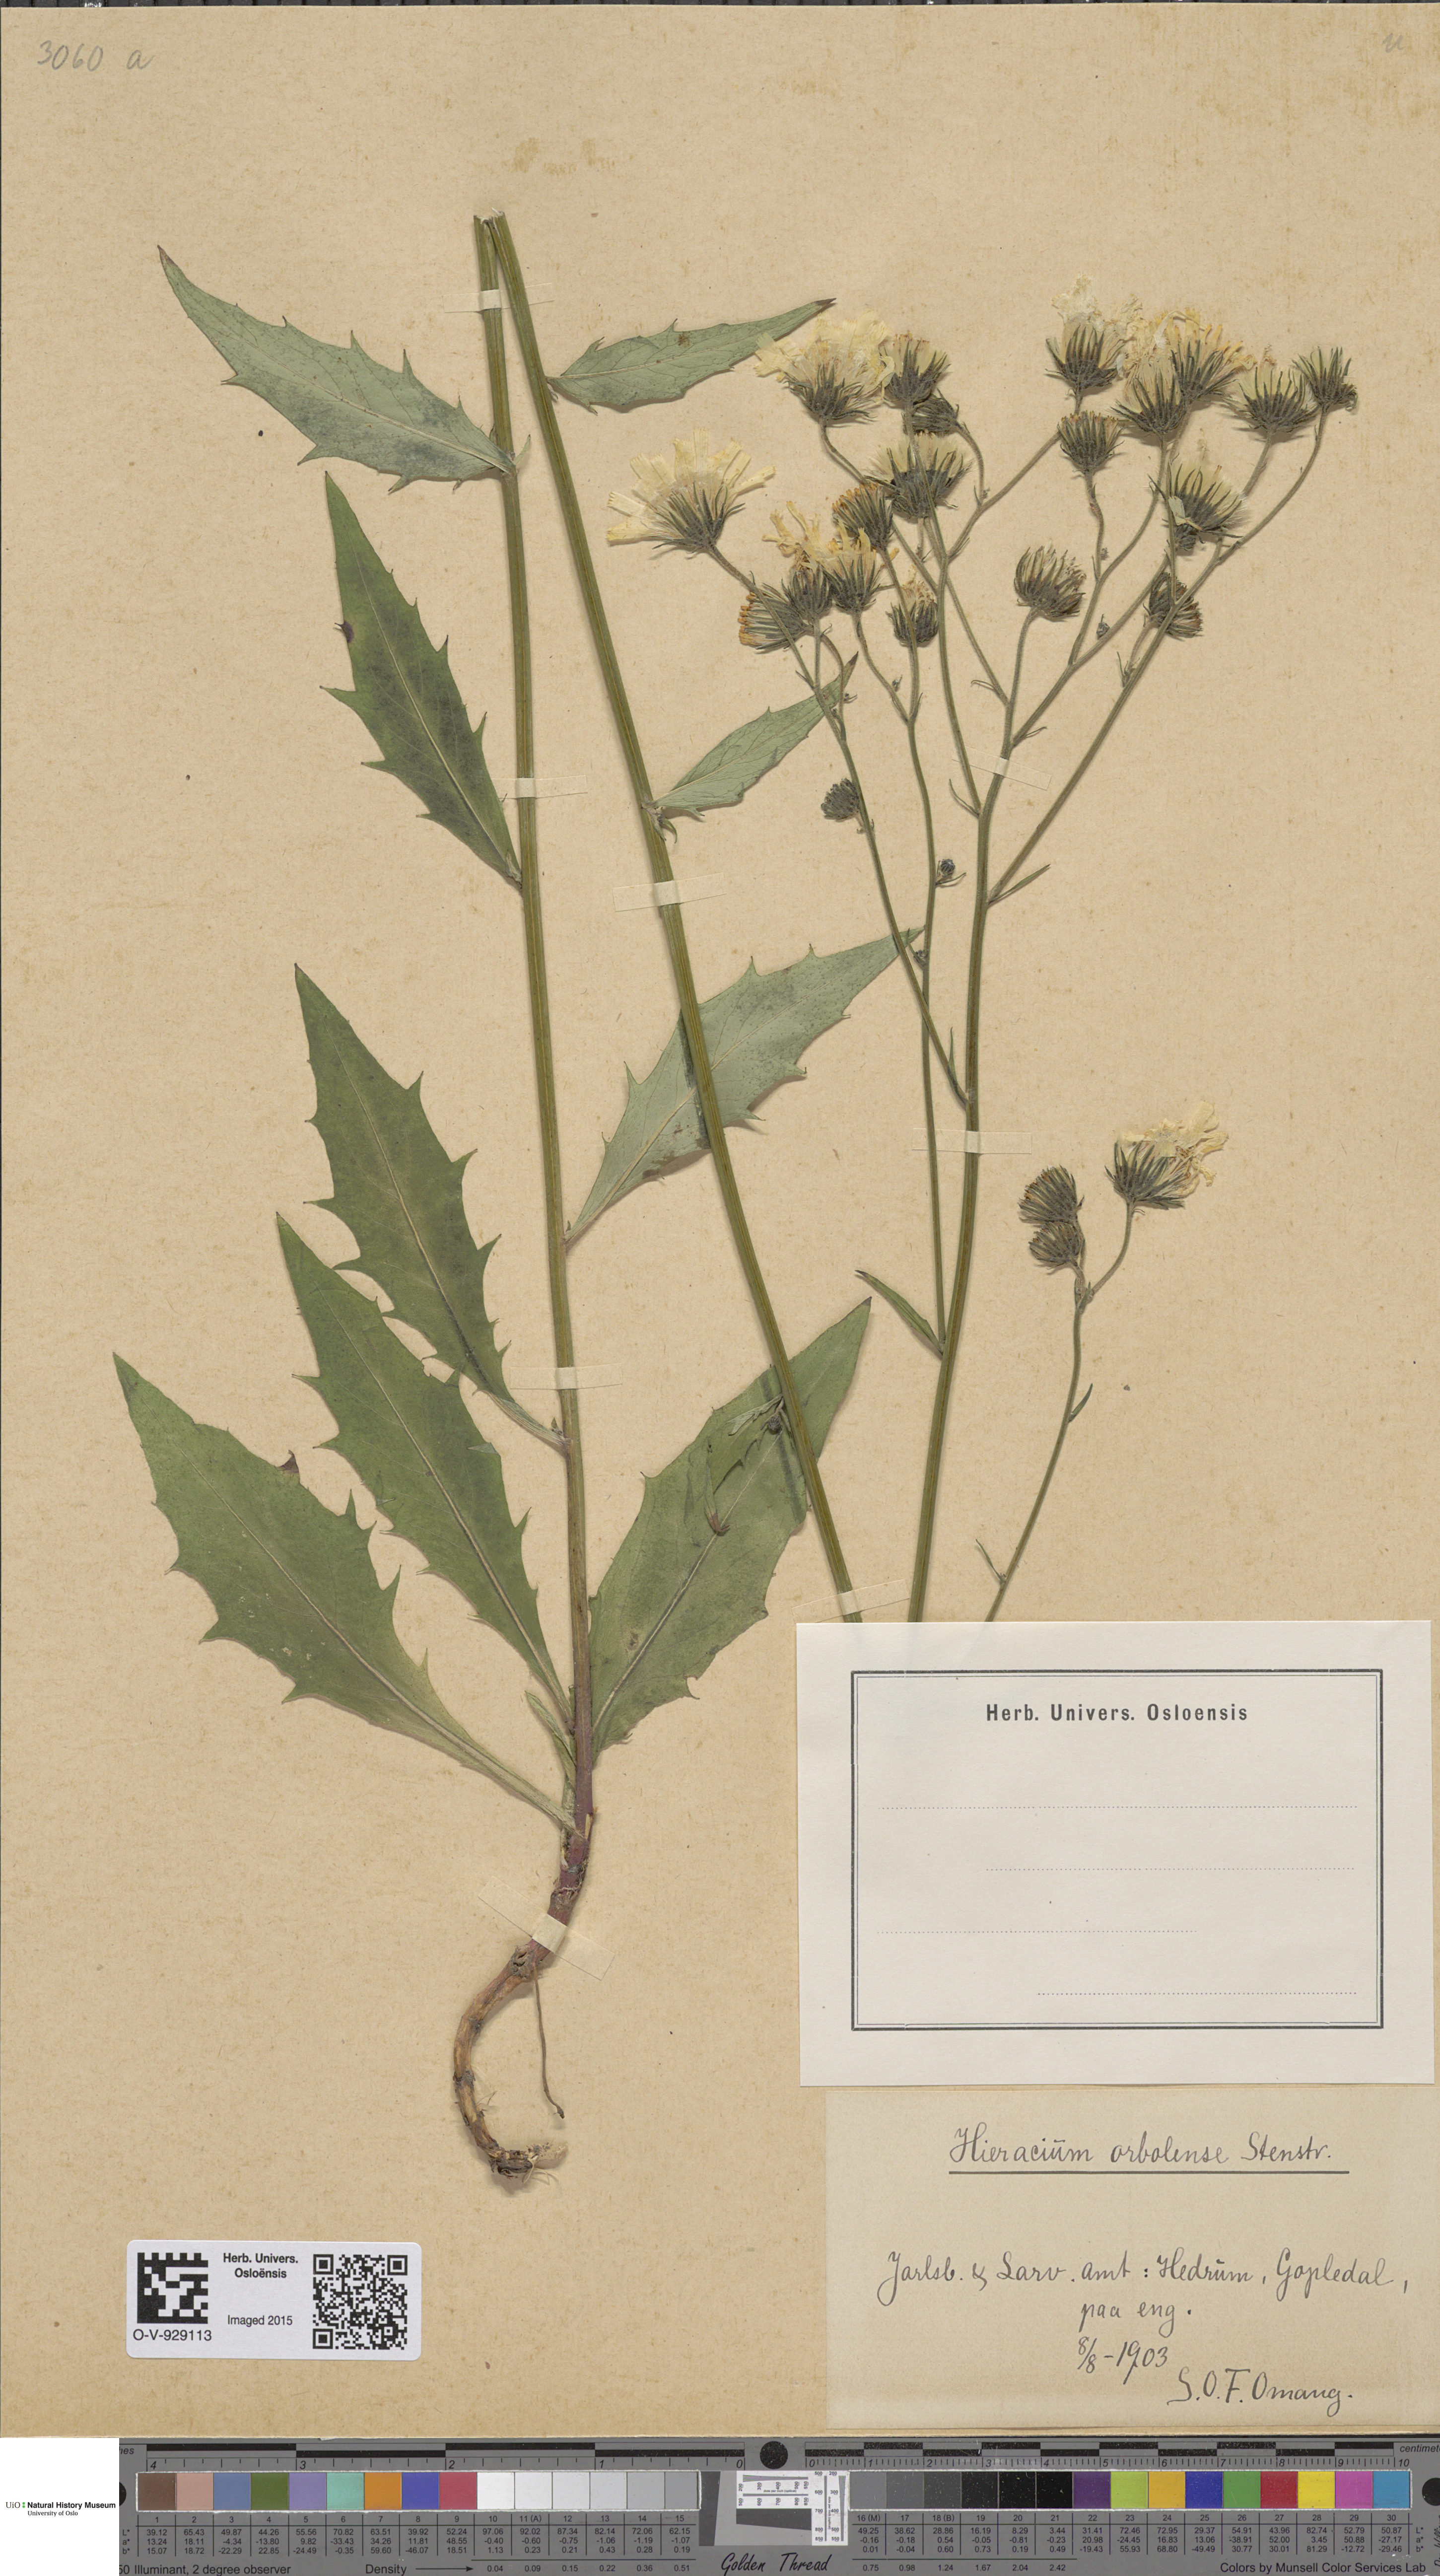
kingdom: Plantae
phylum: Tracheophyta
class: Magnoliopsida
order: Asterales
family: Asteraceae
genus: Hieracium
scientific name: Hieracium orbolense
